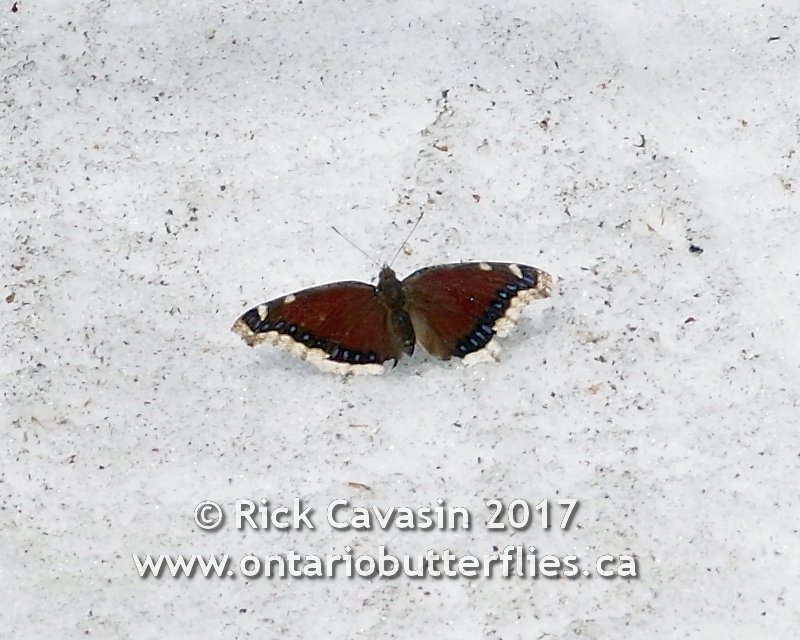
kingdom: Animalia
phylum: Arthropoda
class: Insecta
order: Lepidoptera
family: Nymphalidae
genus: Nymphalis
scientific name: Nymphalis antiopa
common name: Mourning Cloak
